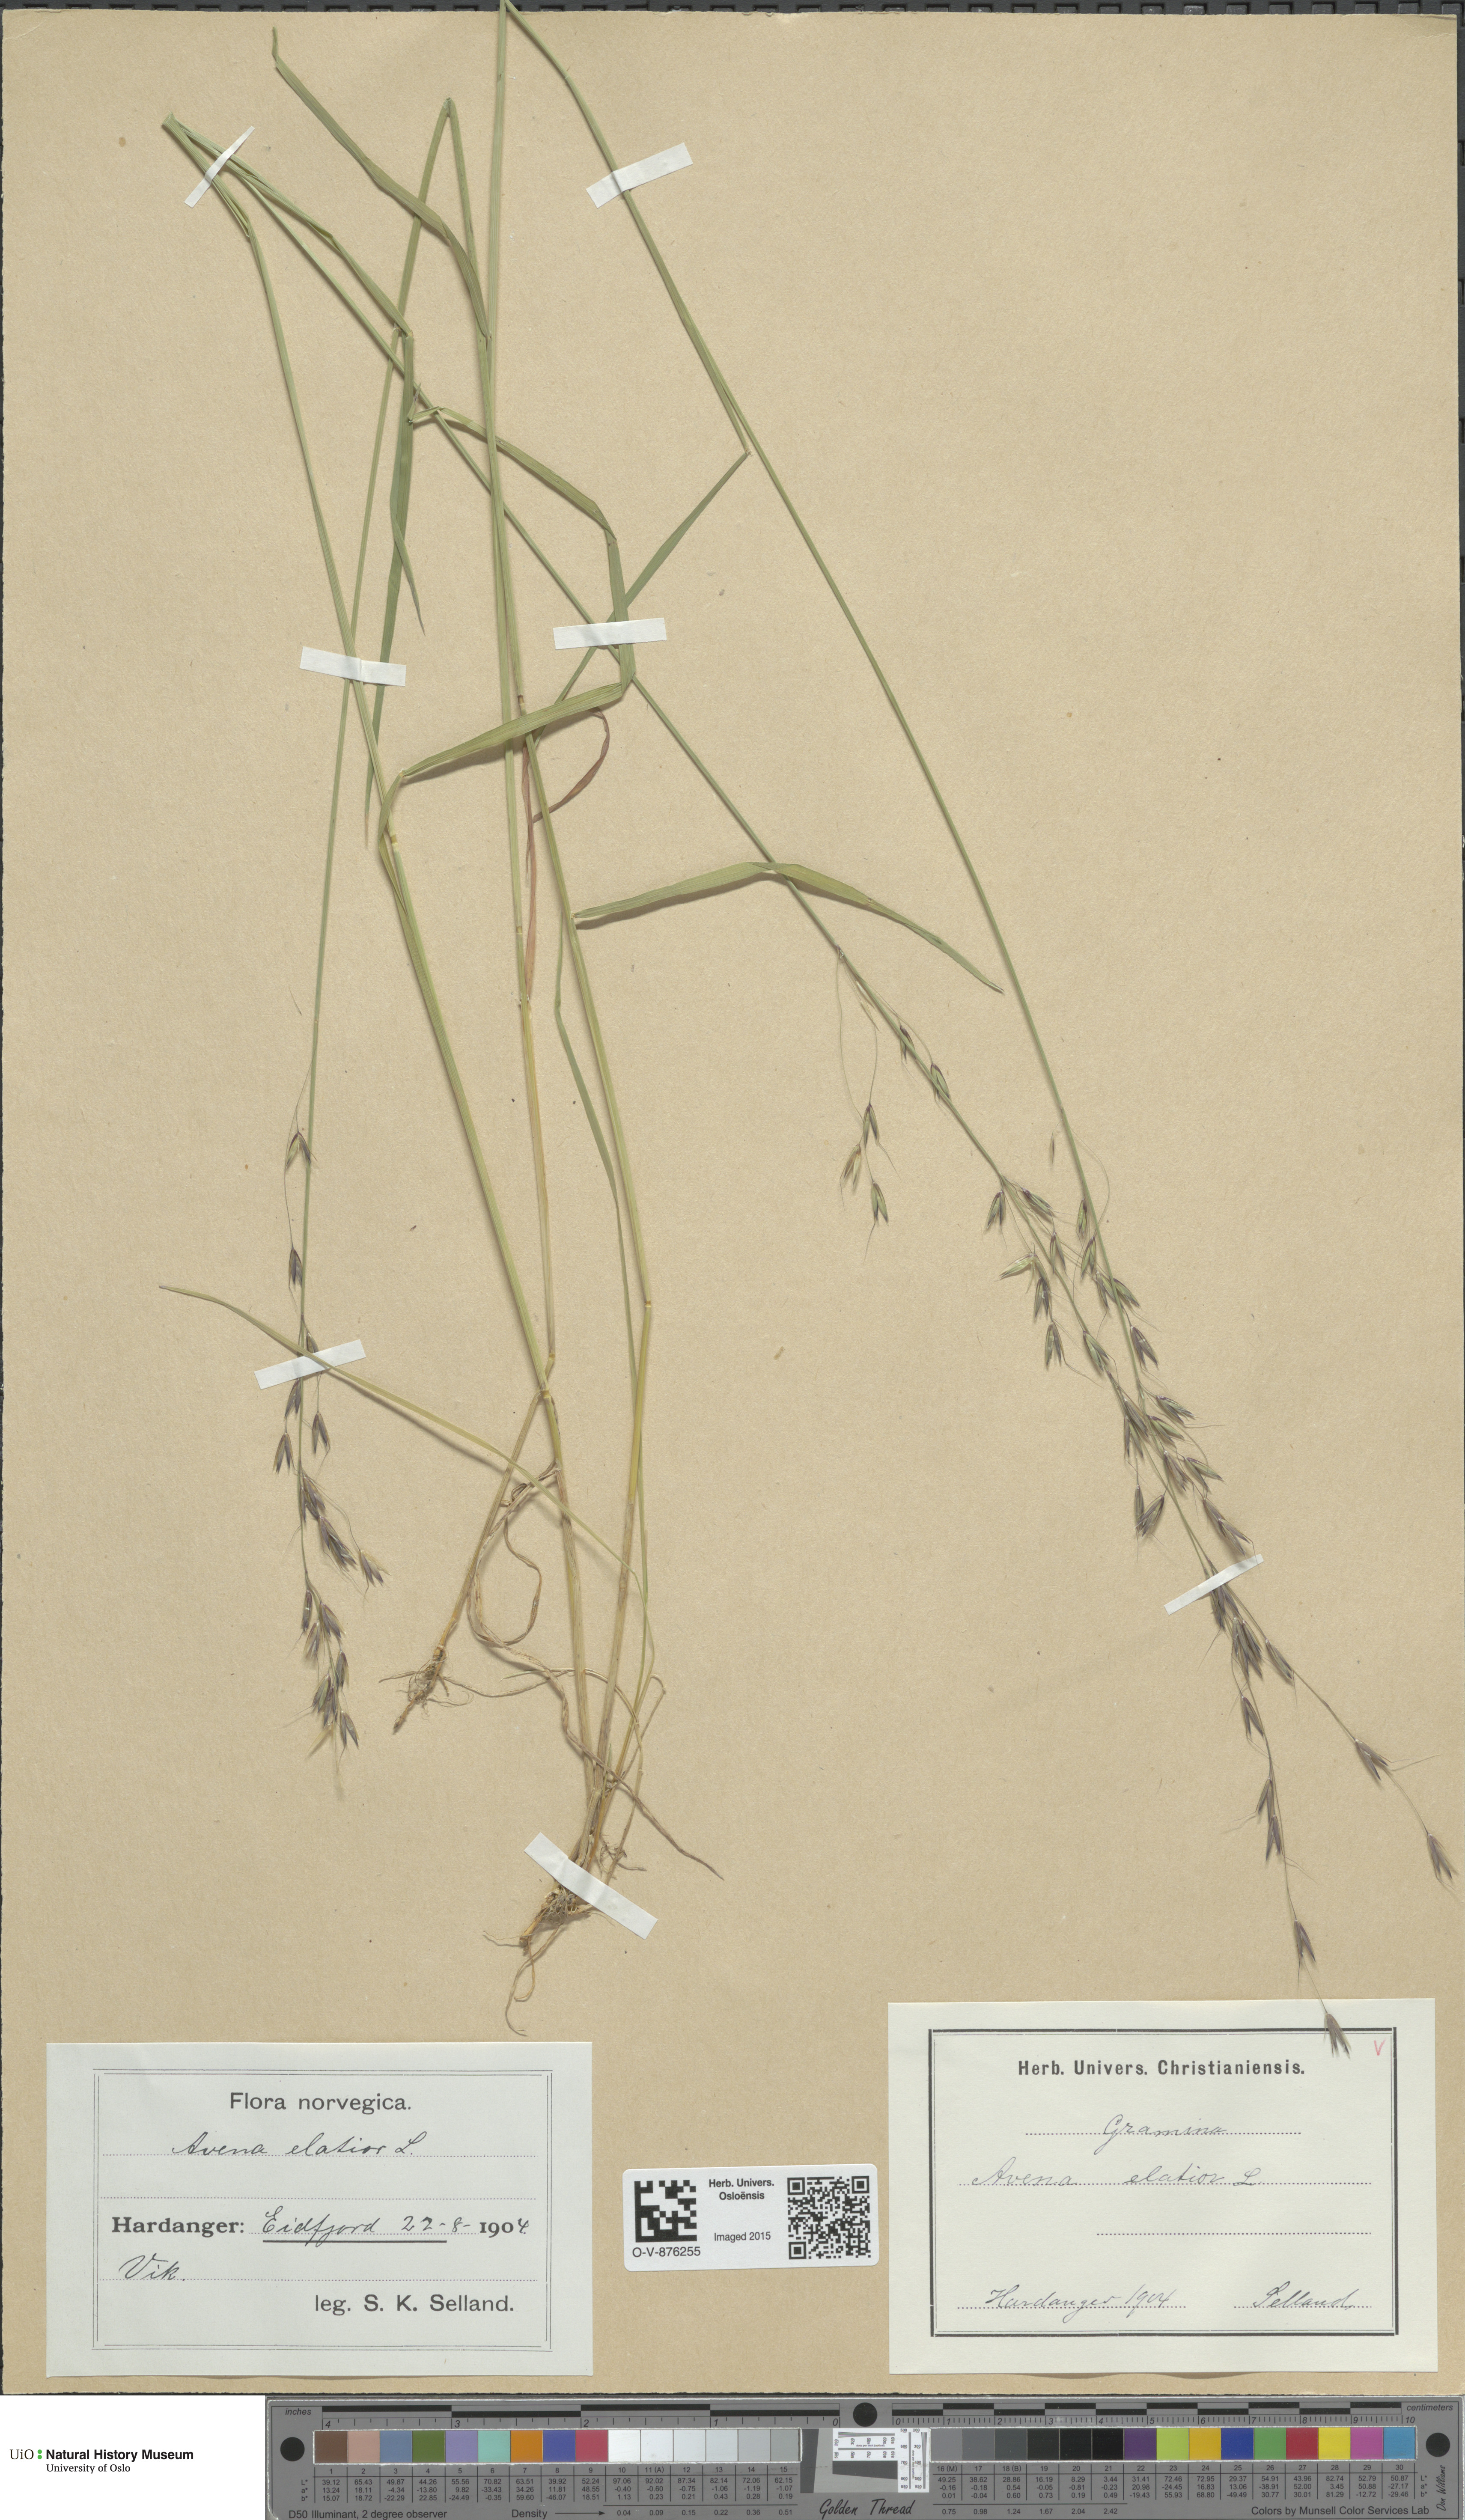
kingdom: Plantae
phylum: Tracheophyta
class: Liliopsida
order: Poales
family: Poaceae
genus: Arrhenatherum
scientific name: Arrhenatherum elatius
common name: Tall oatgrass
